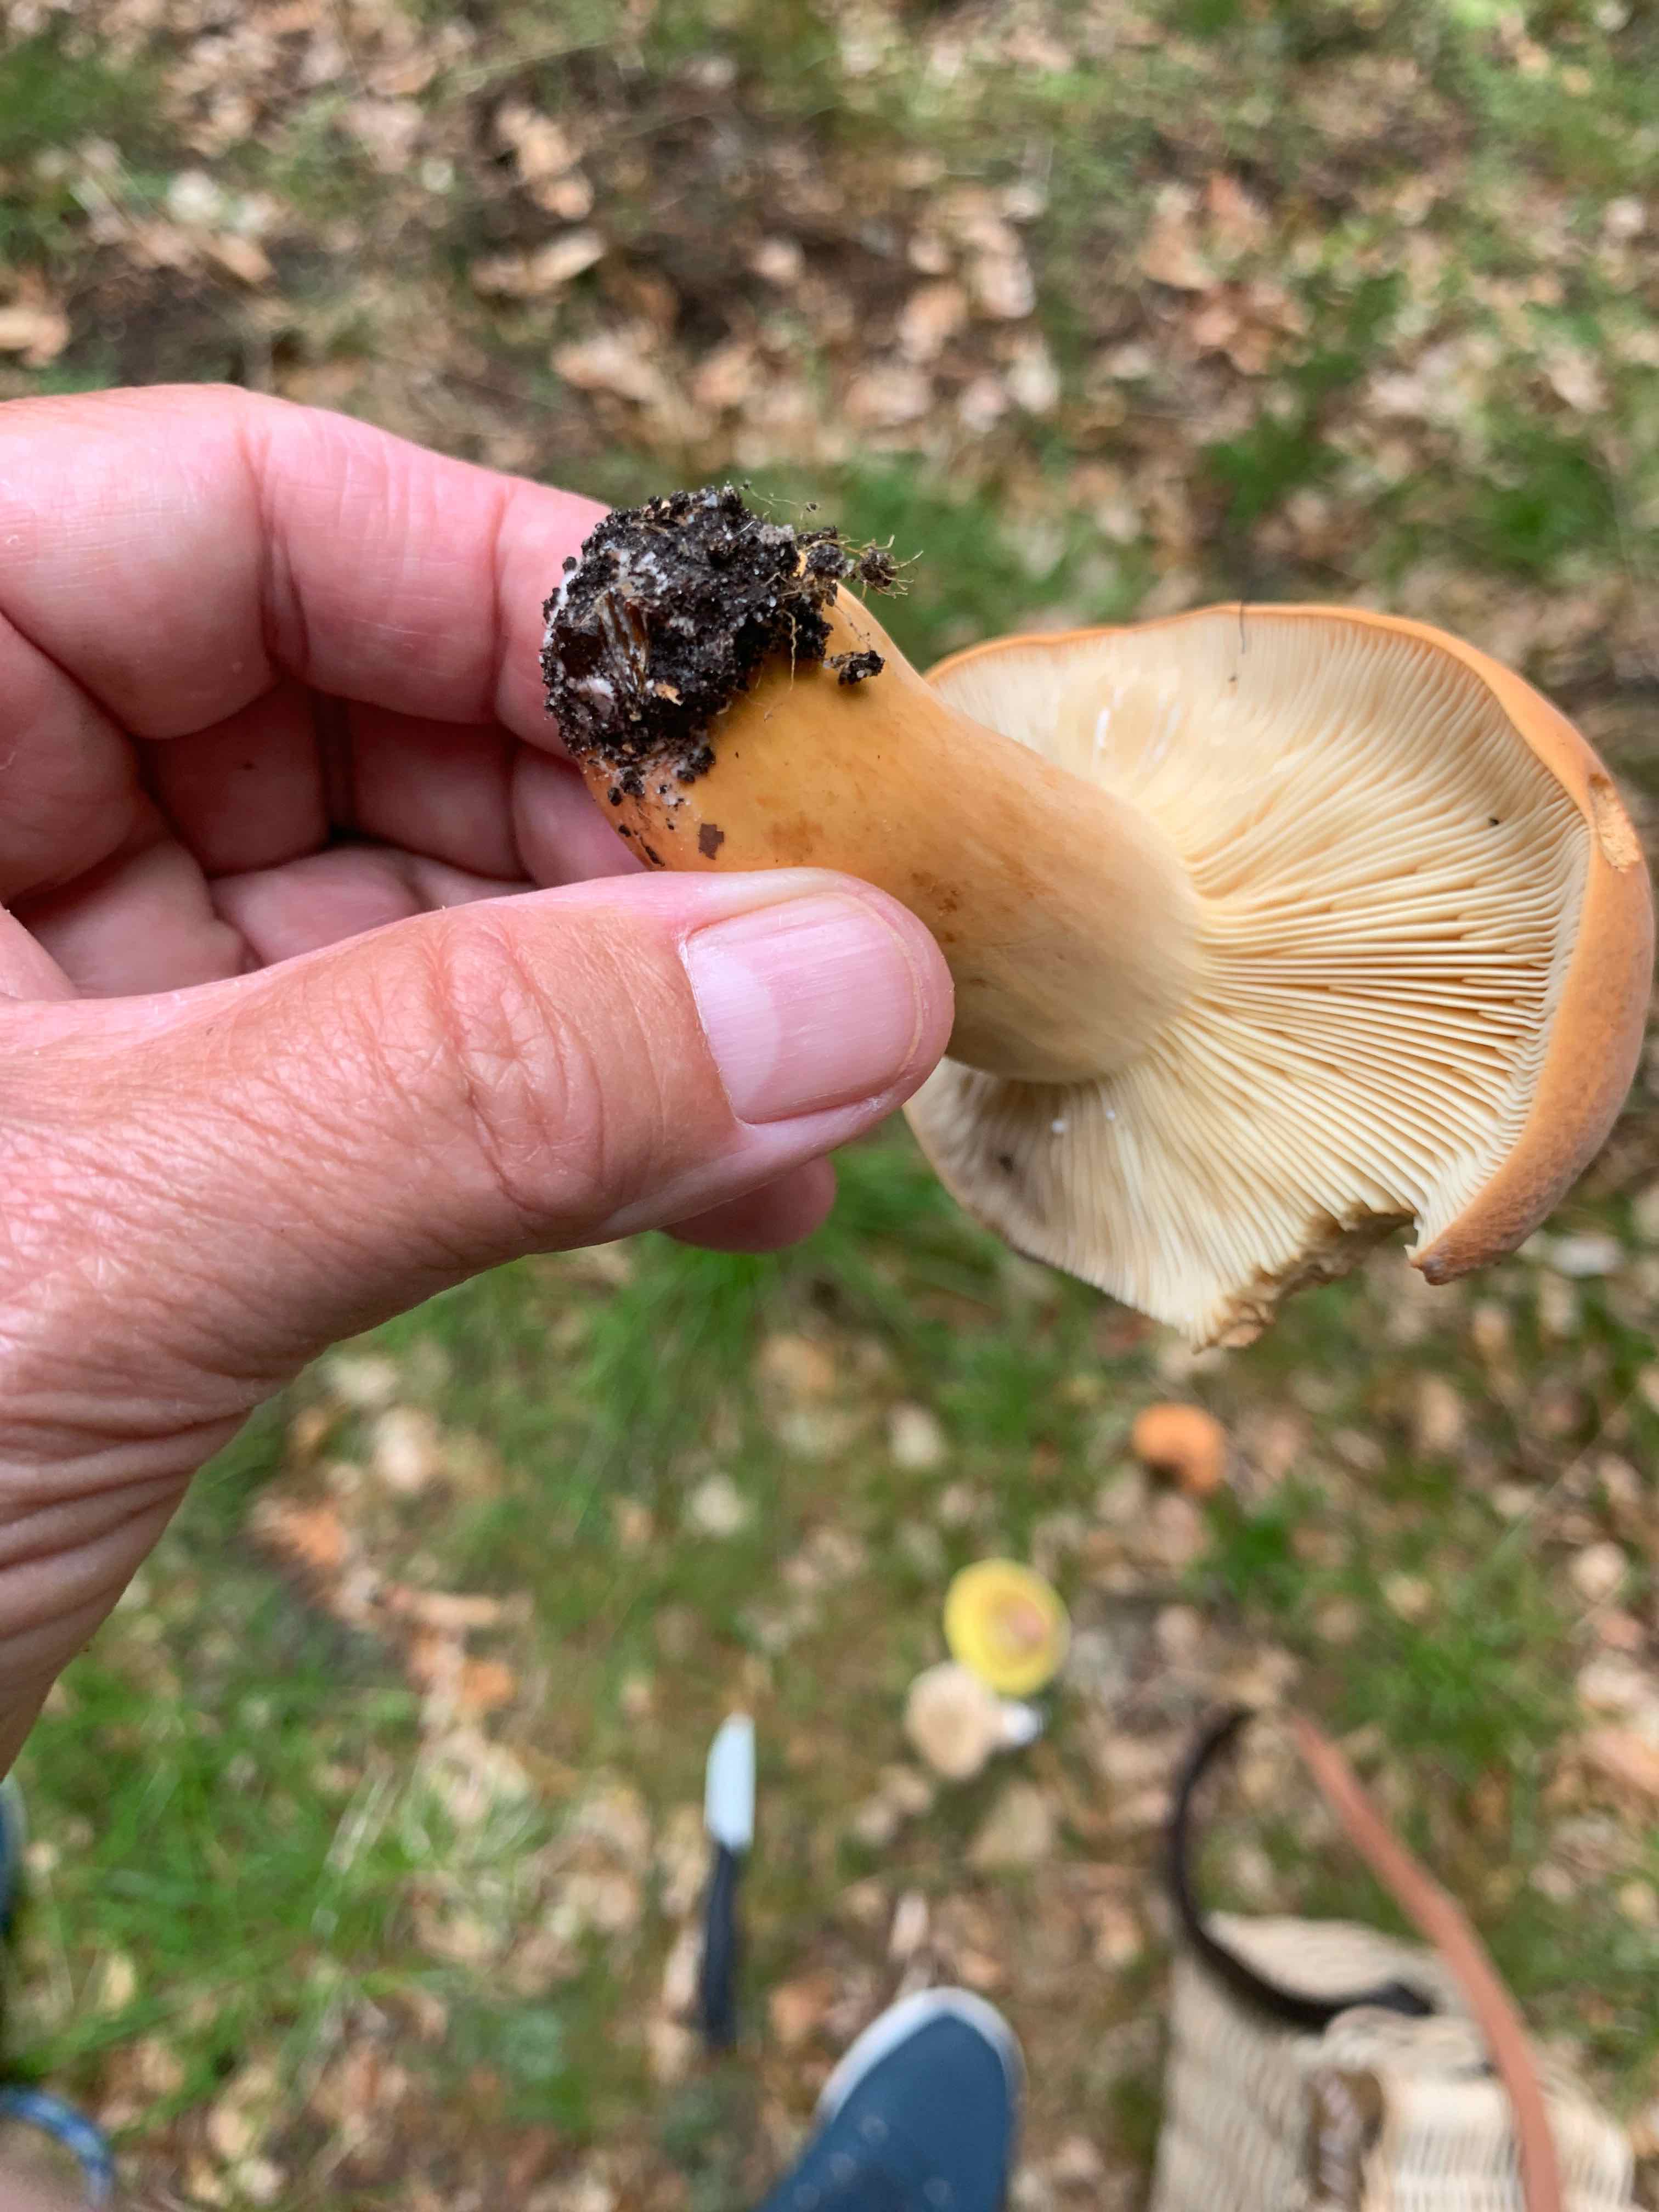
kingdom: Fungi
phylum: Basidiomycota
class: Agaricomycetes
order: Russulales
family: Russulaceae
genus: Lactifluus
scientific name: Lactifluus volemus
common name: spiselig mælkehat
